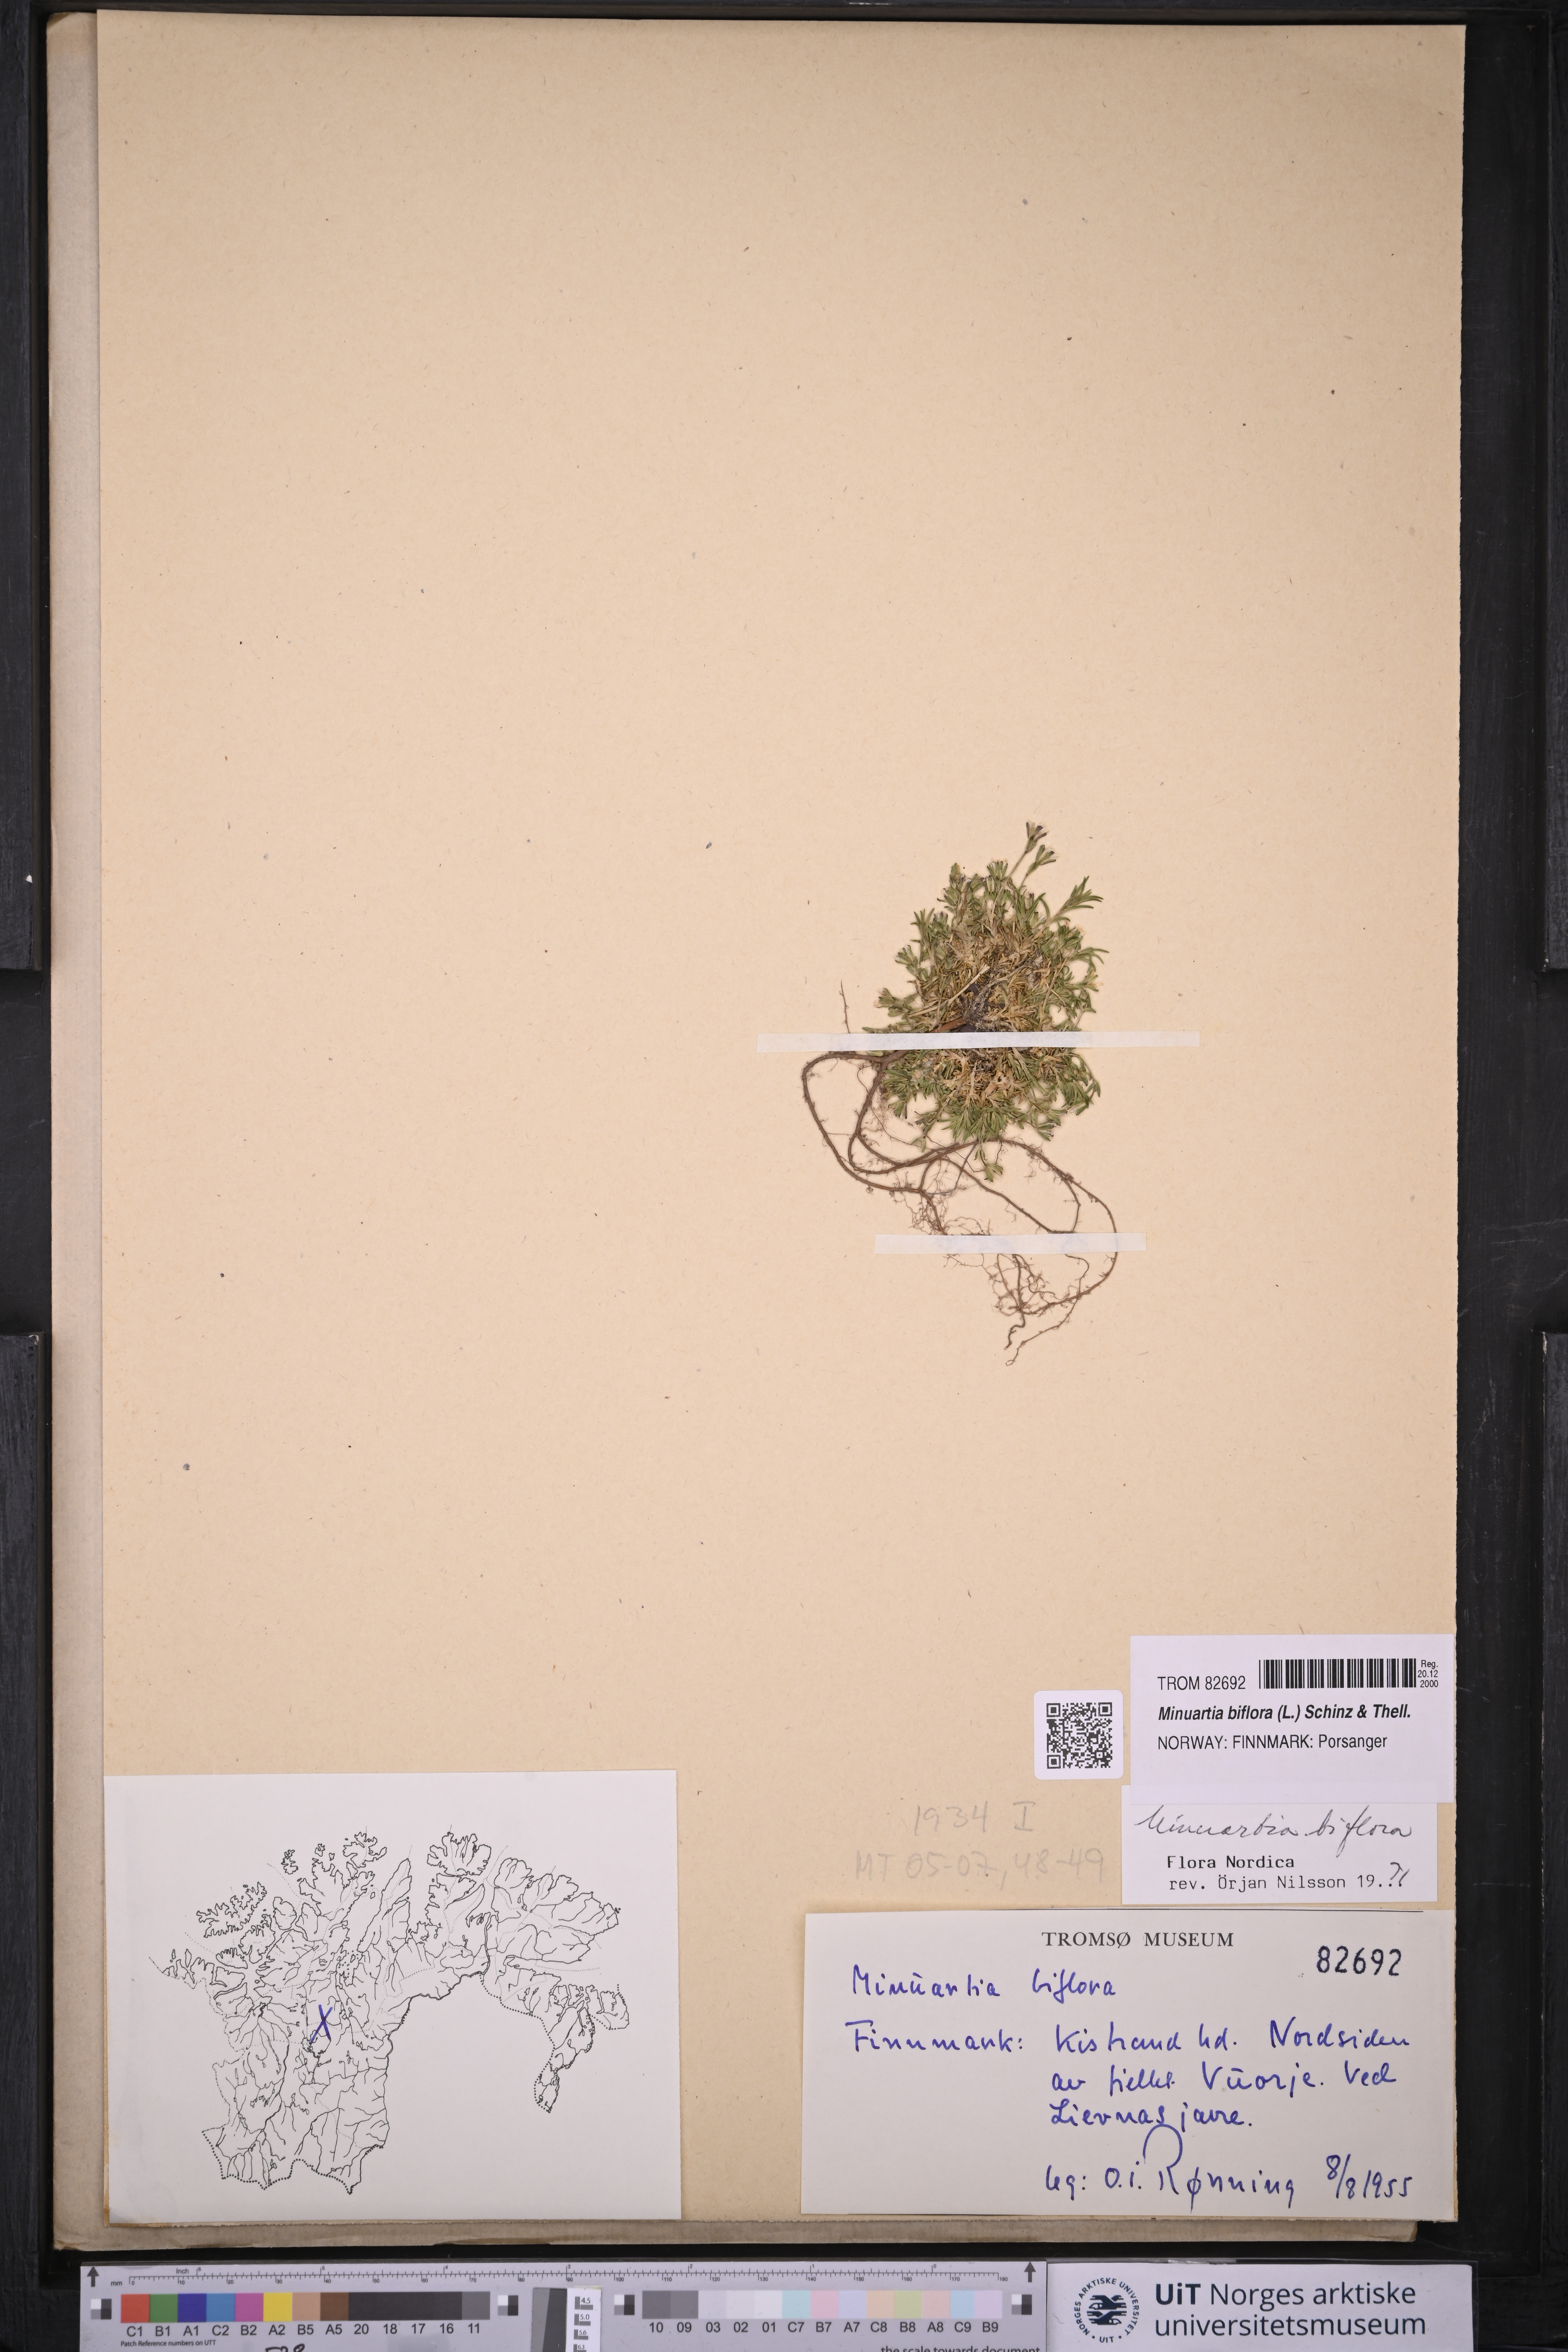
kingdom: Plantae
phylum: Tracheophyta
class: Magnoliopsida
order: Caryophyllales
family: Caryophyllaceae
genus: Cherleria
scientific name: Cherleria biflora
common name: Mountain sandwort
